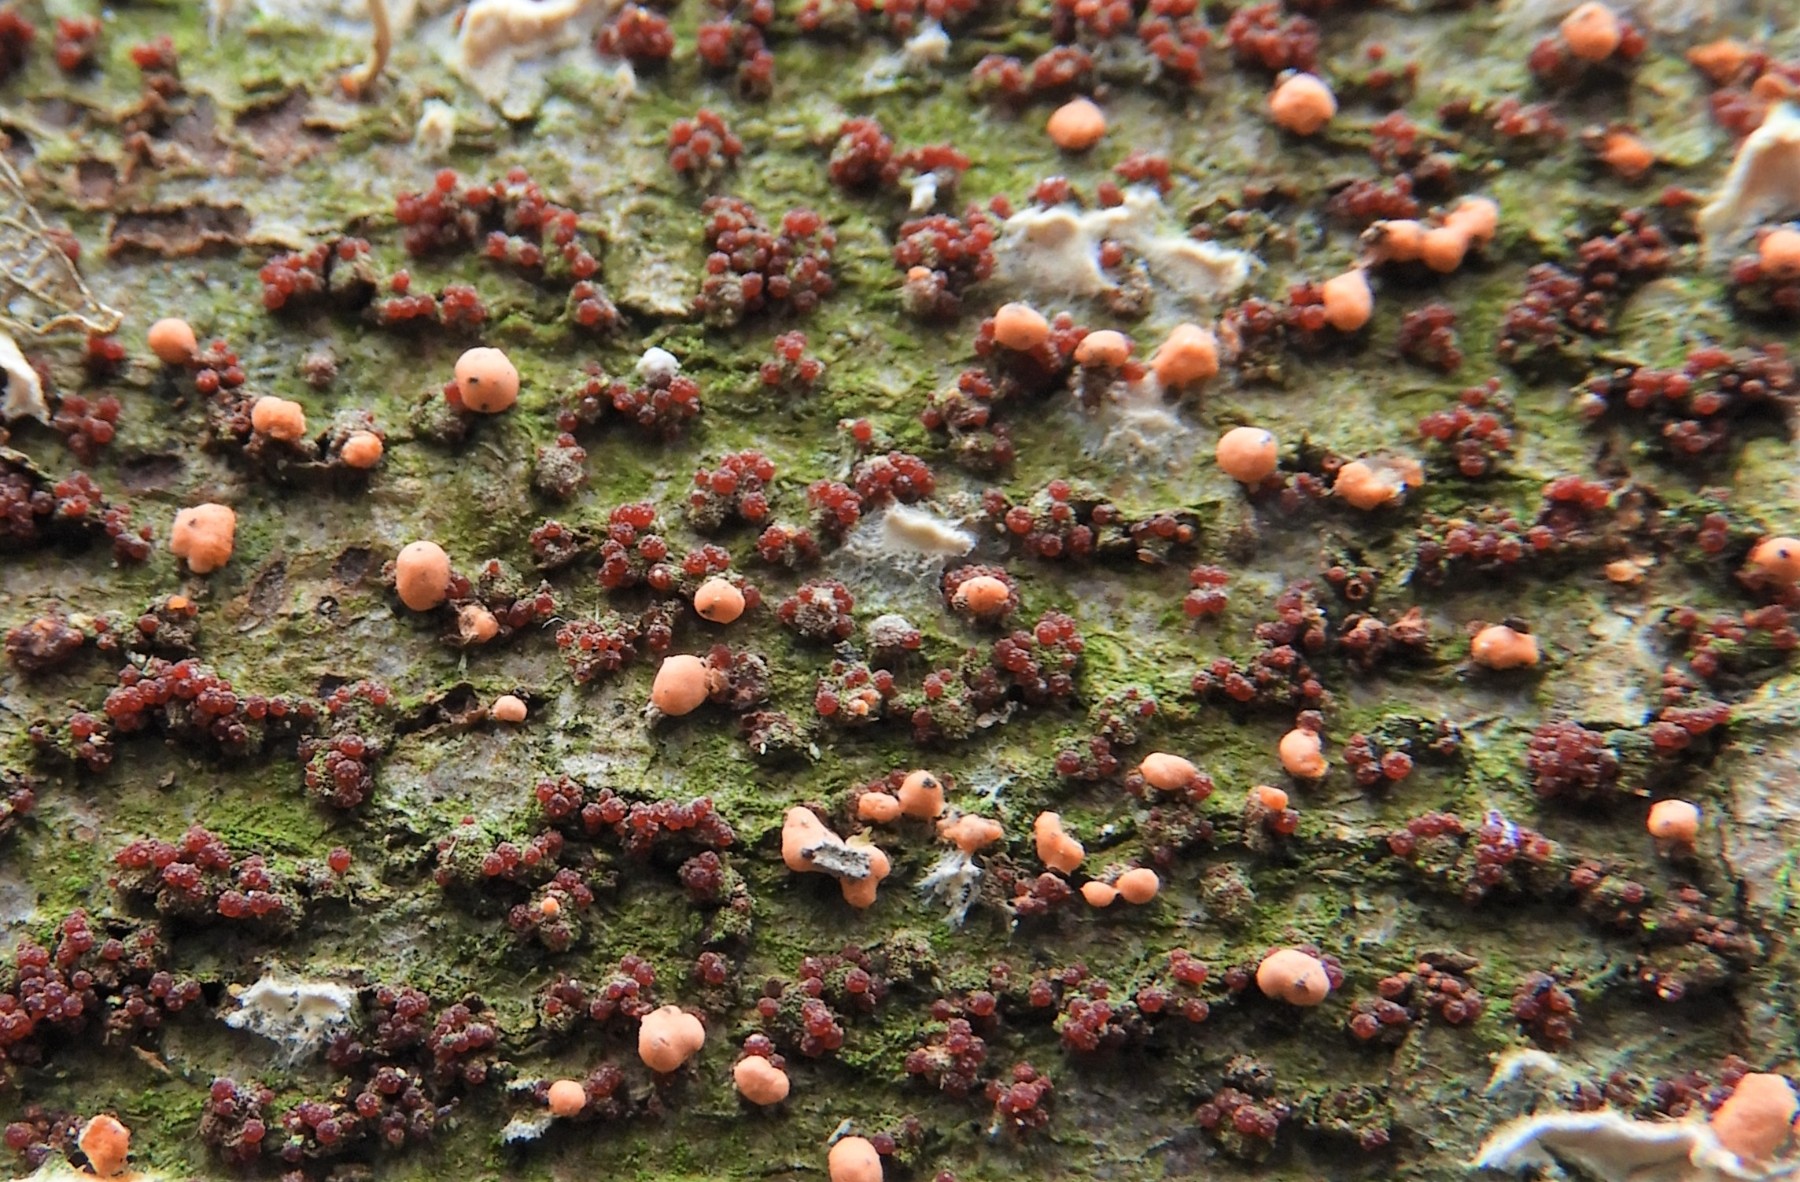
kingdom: Fungi
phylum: Ascomycota
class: Sordariomycetes
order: Hypocreales
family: Nectriaceae
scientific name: Nectriaceae
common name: cinnobersvampfamilien
